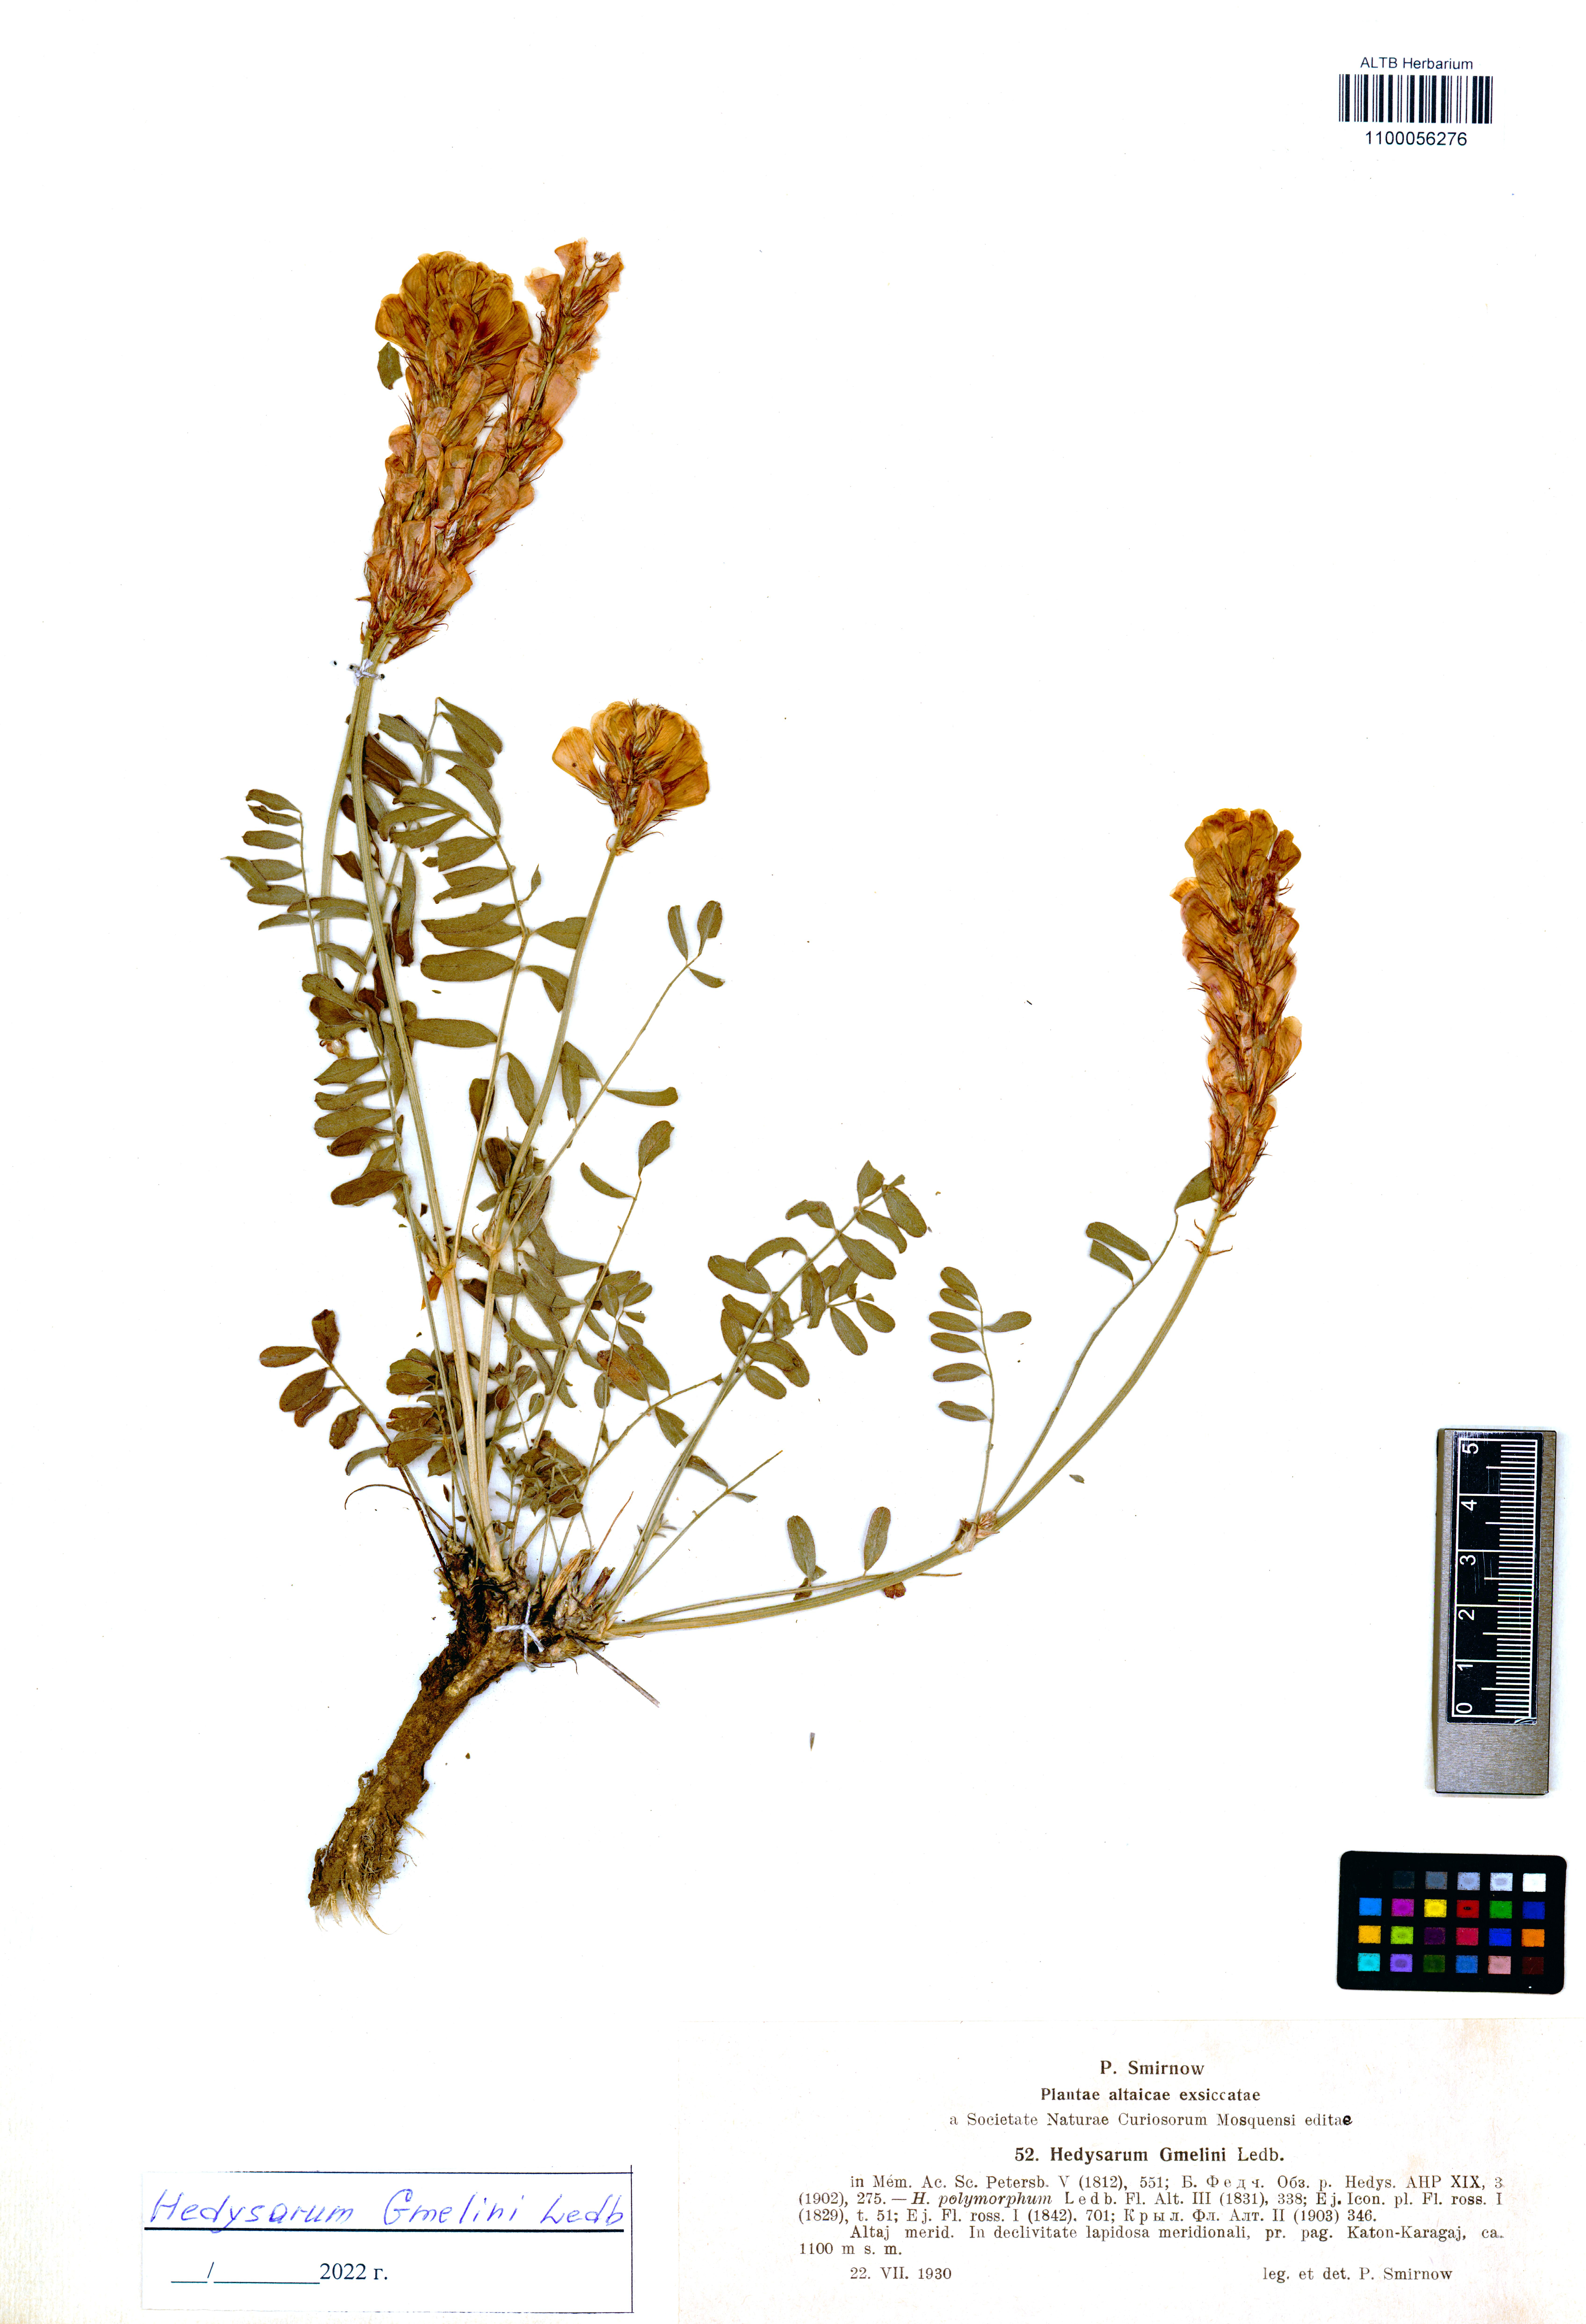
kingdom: Plantae
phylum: Tracheophyta
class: Magnoliopsida
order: Fabales
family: Fabaceae
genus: Hedysarum
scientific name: Hedysarum gmelinii
